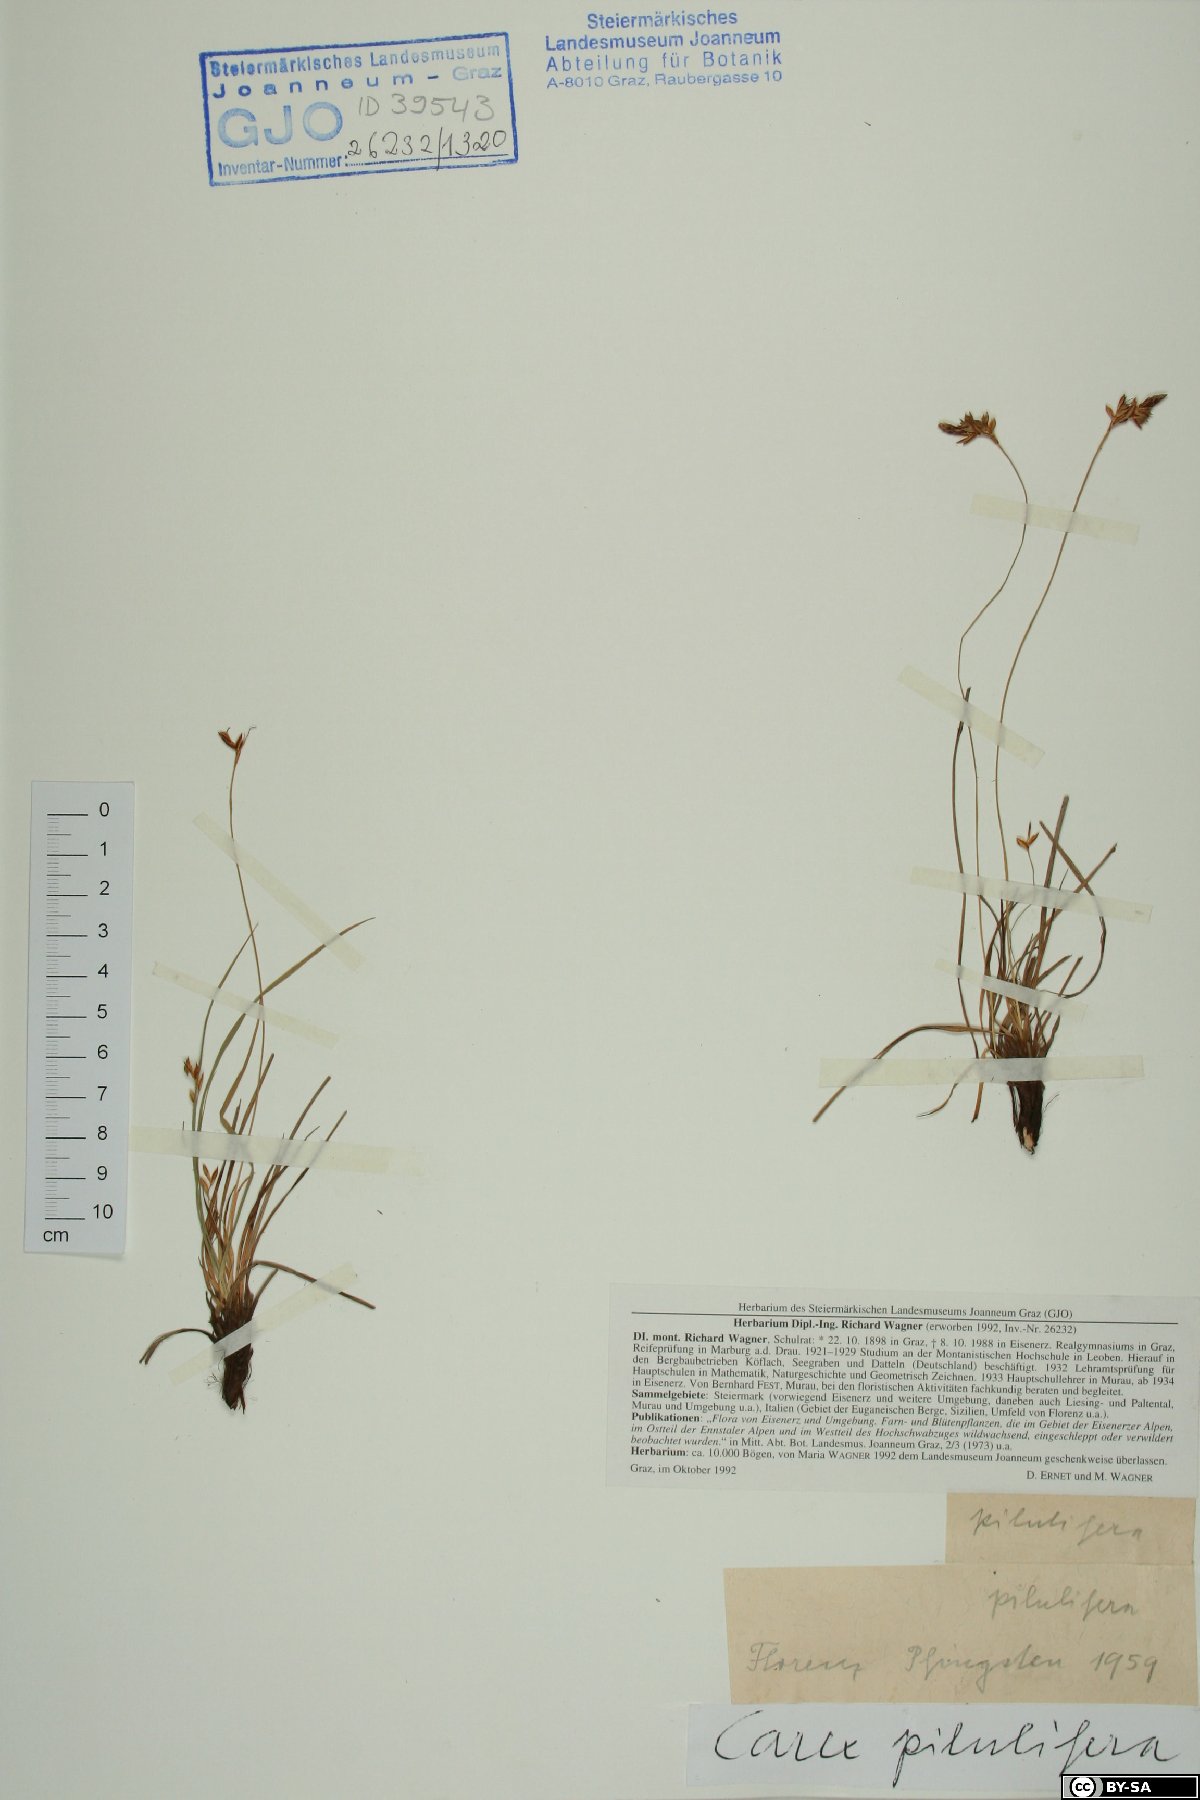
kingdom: Plantae
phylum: Tracheophyta
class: Liliopsida
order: Poales
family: Cyperaceae
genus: Carex
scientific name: Carex pilulifera
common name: Pill sedge
